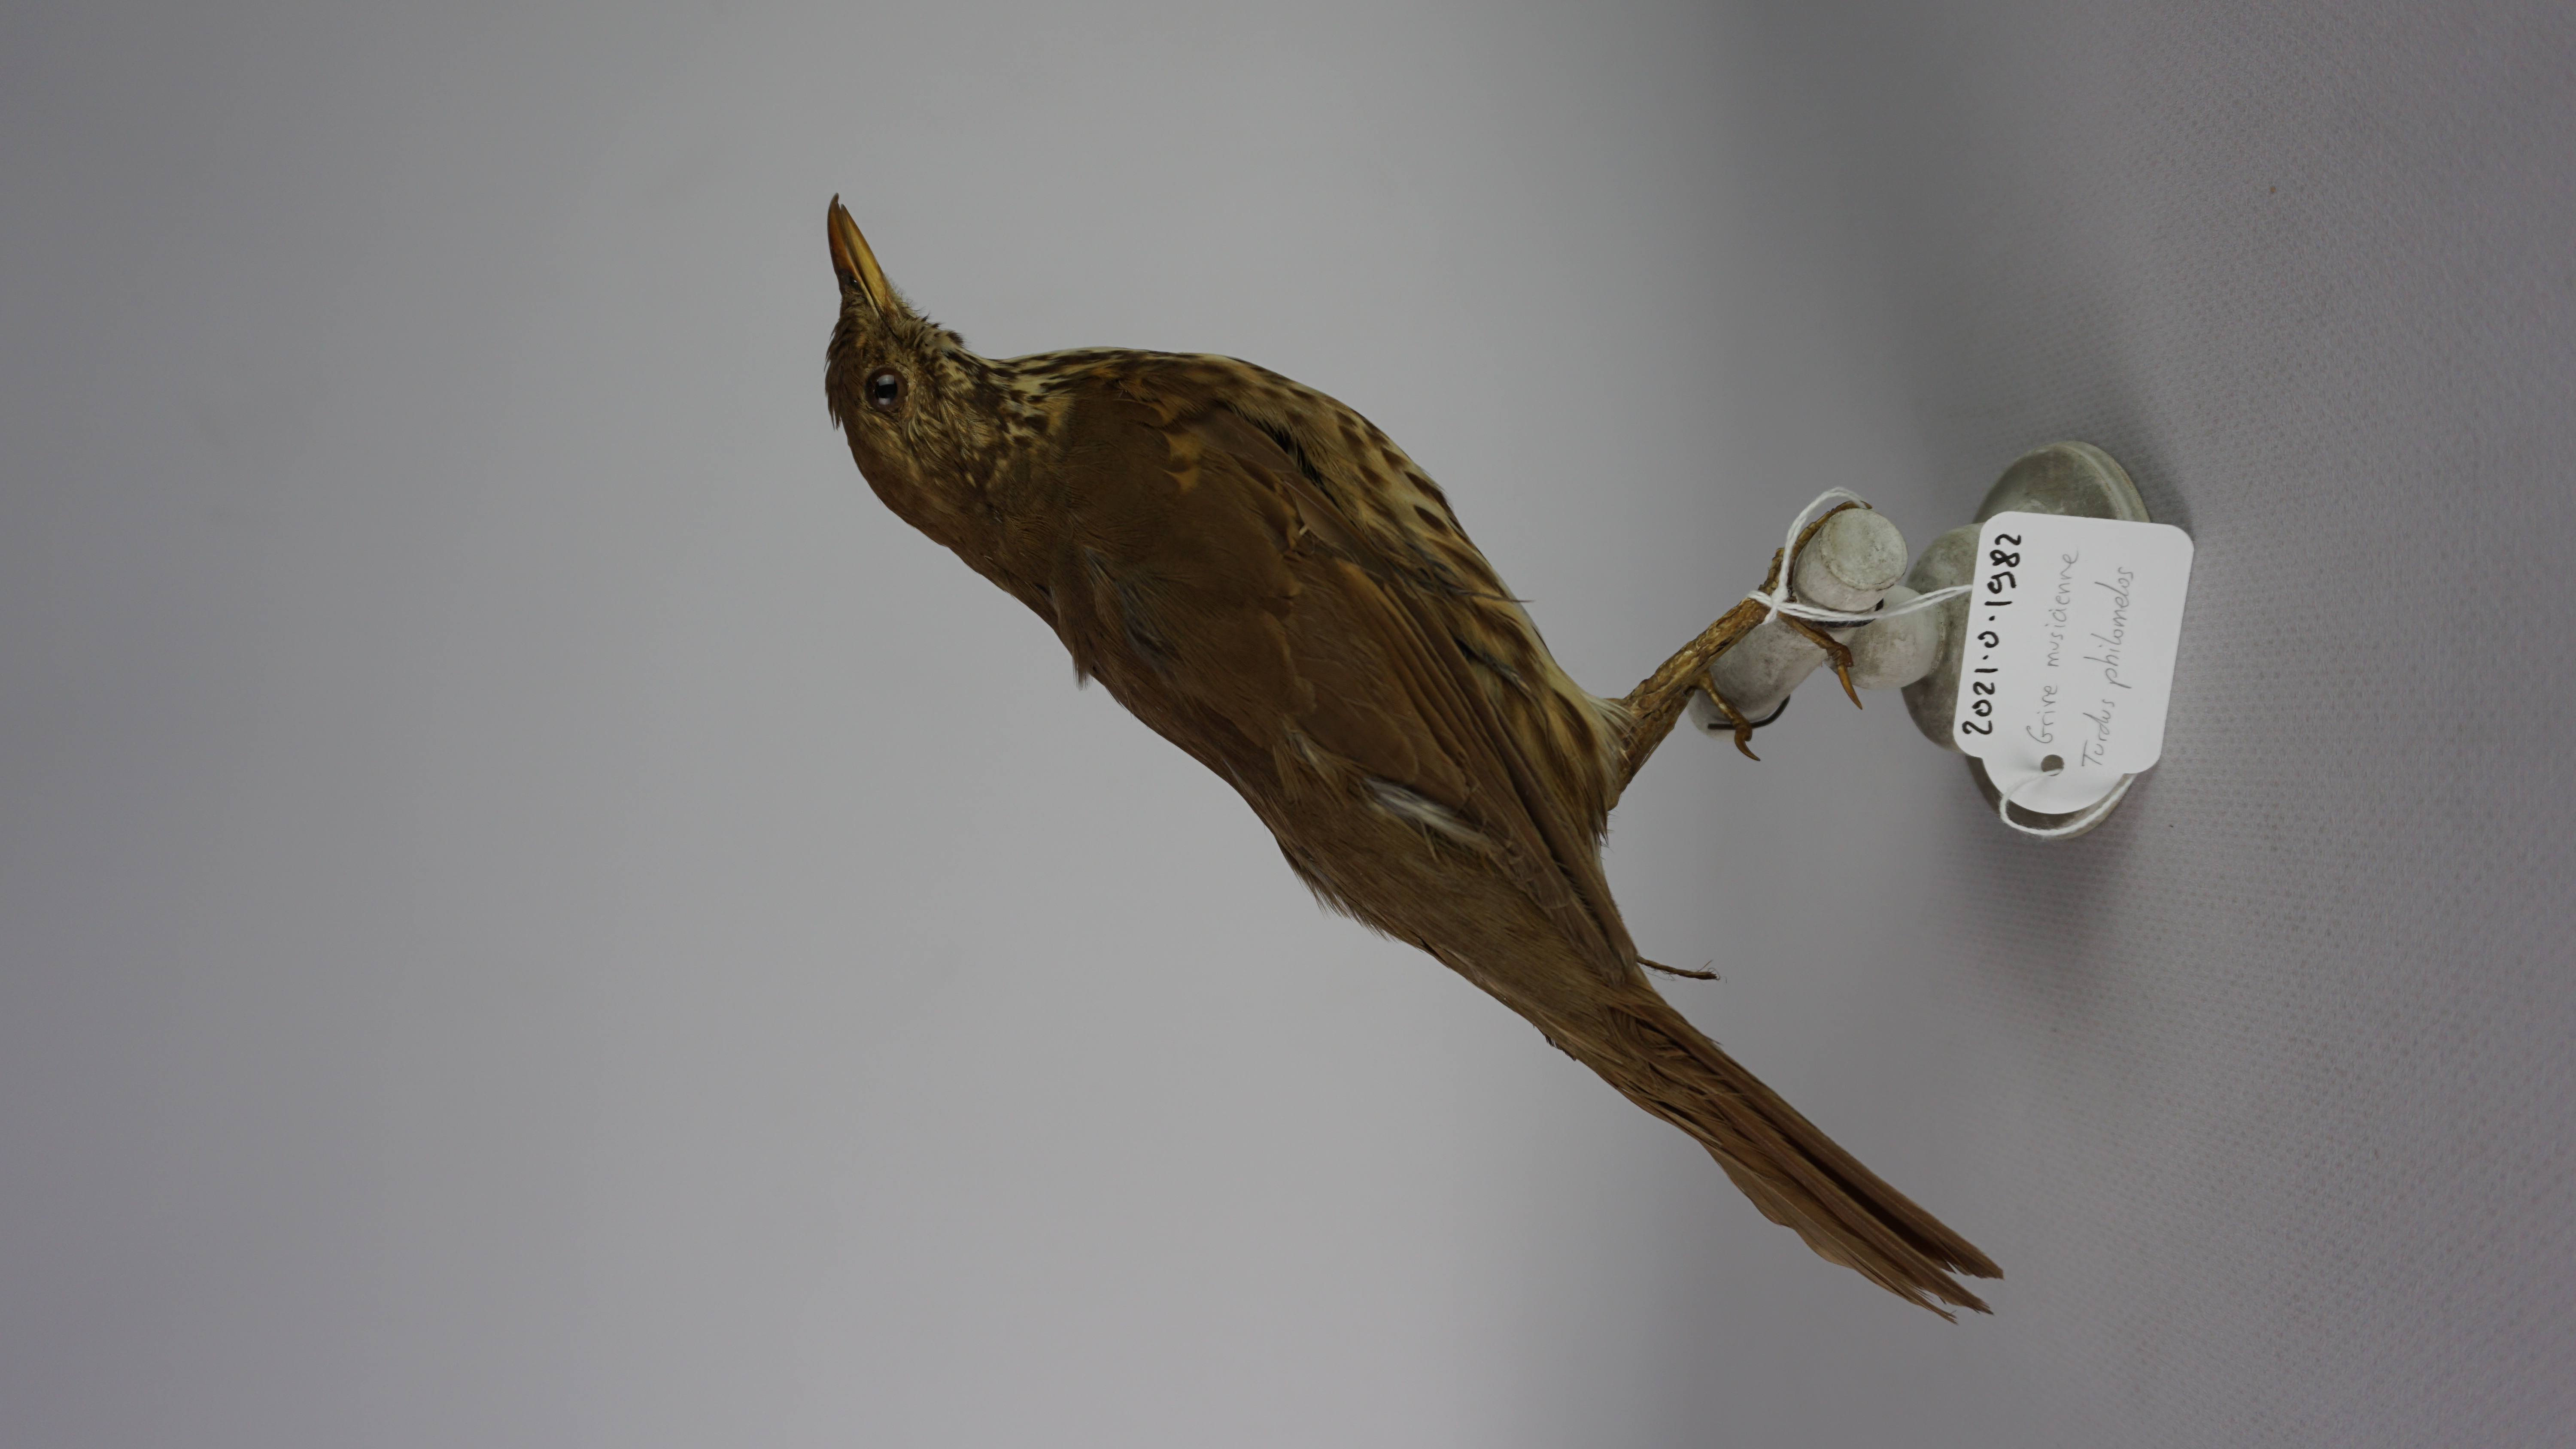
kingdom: Animalia
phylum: Chordata
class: Aves
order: Passeriformes
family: Turdidae
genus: Turdus
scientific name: Turdus philomelos
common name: Song thrush
